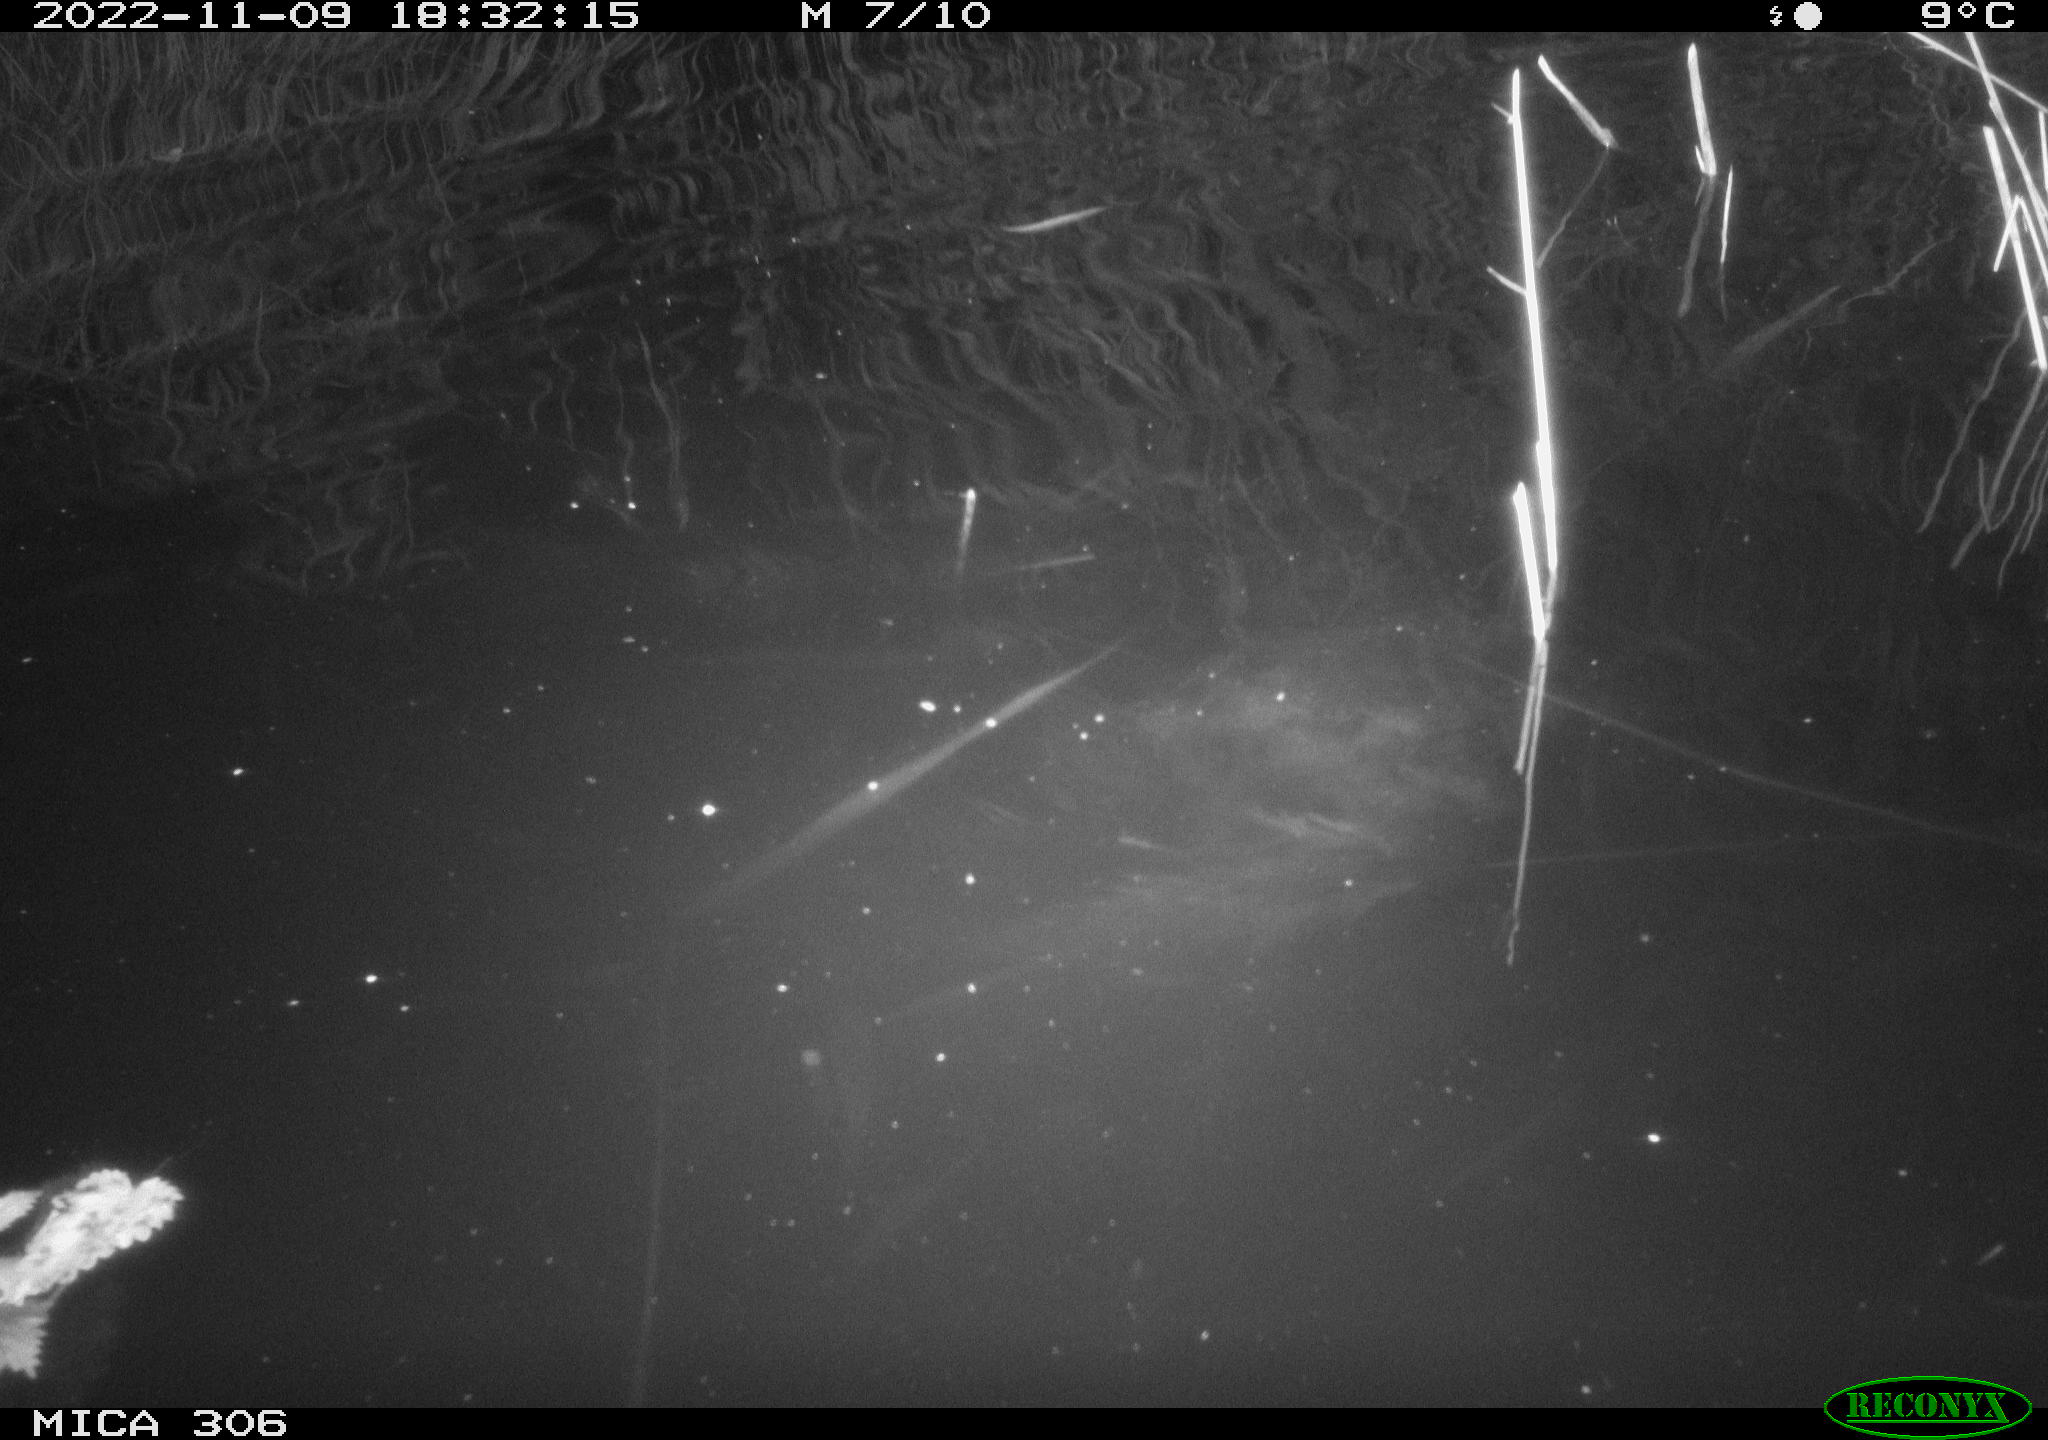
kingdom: Animalia
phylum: Chordata
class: Mammalia
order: Rodentia
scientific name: Rodentia
